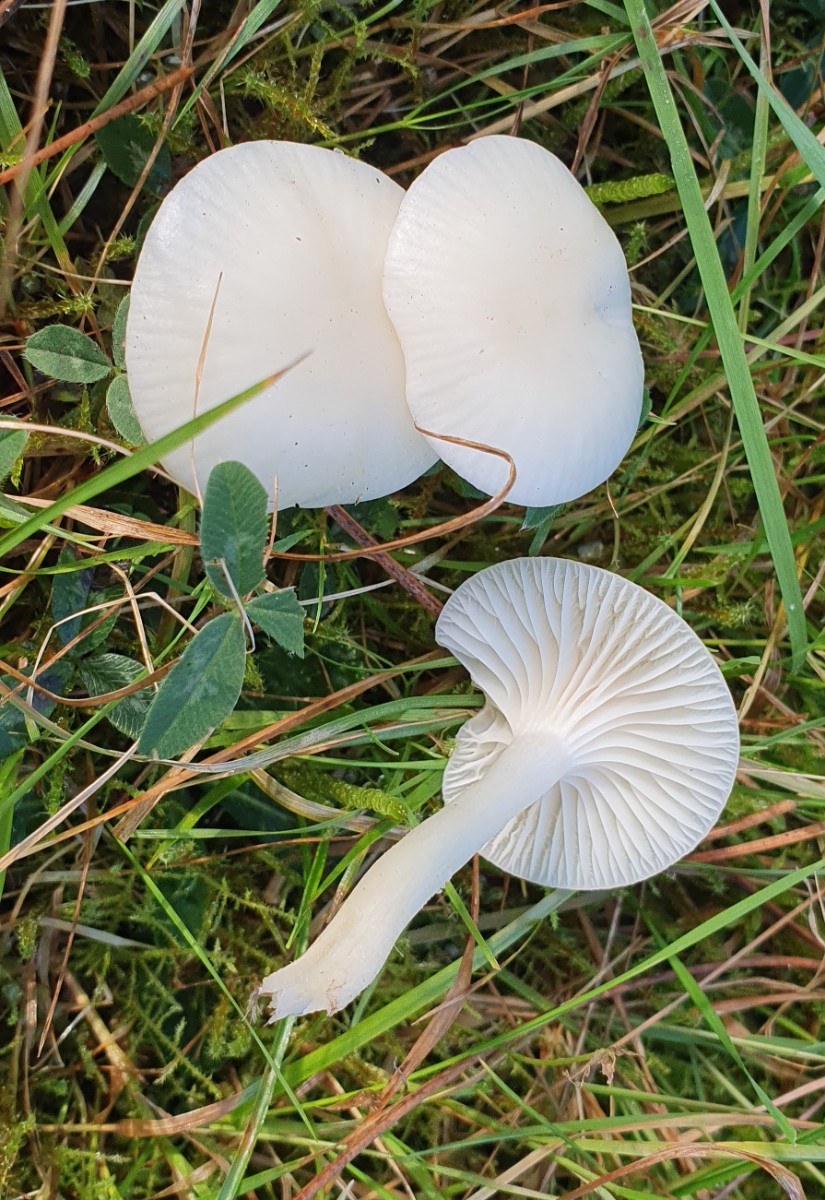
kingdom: Fungi
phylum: Basidiomycota
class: Agaricomycetes
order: Agaricales
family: Hygrophoraceae
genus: Cuphophyllus
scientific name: Cuphophyllus virgineus
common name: snehvid vokshat
